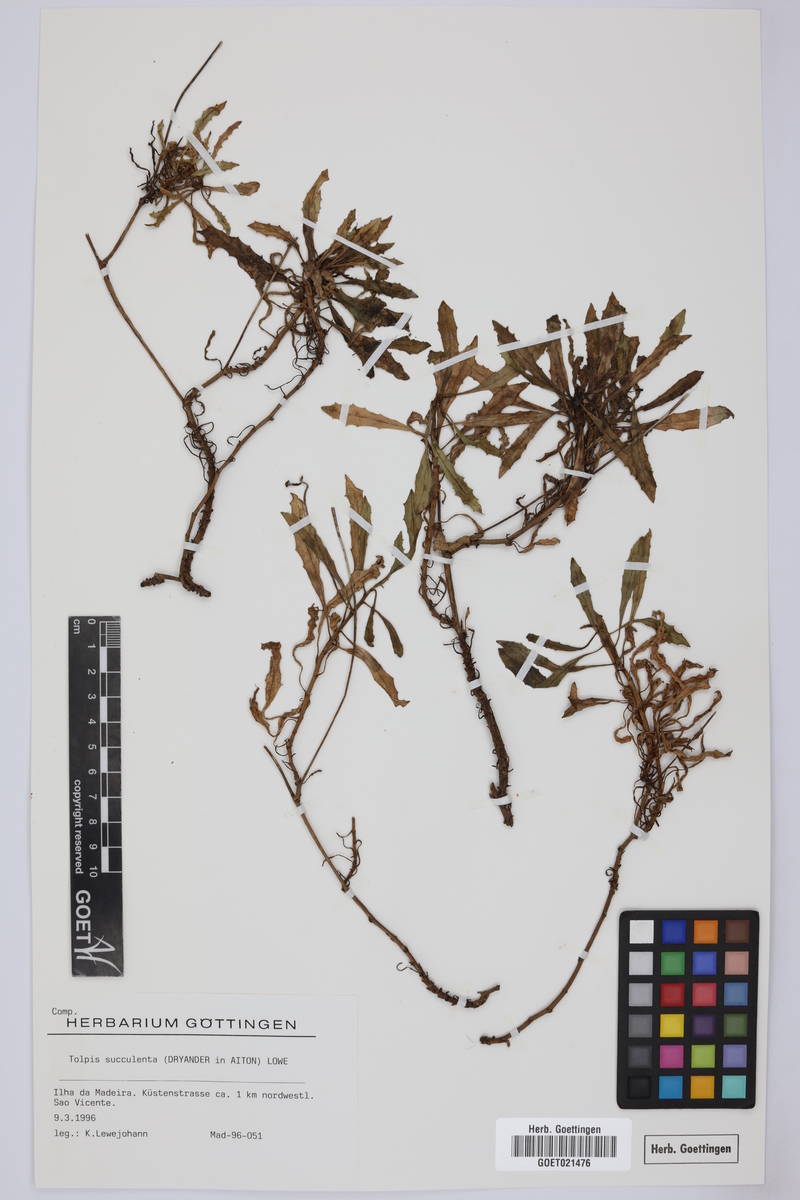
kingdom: Plantae
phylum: Tracheophyta
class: Magnoliopsida
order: Asterales
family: Asteraceae
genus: Tolpis
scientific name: Tolpis succulenta
